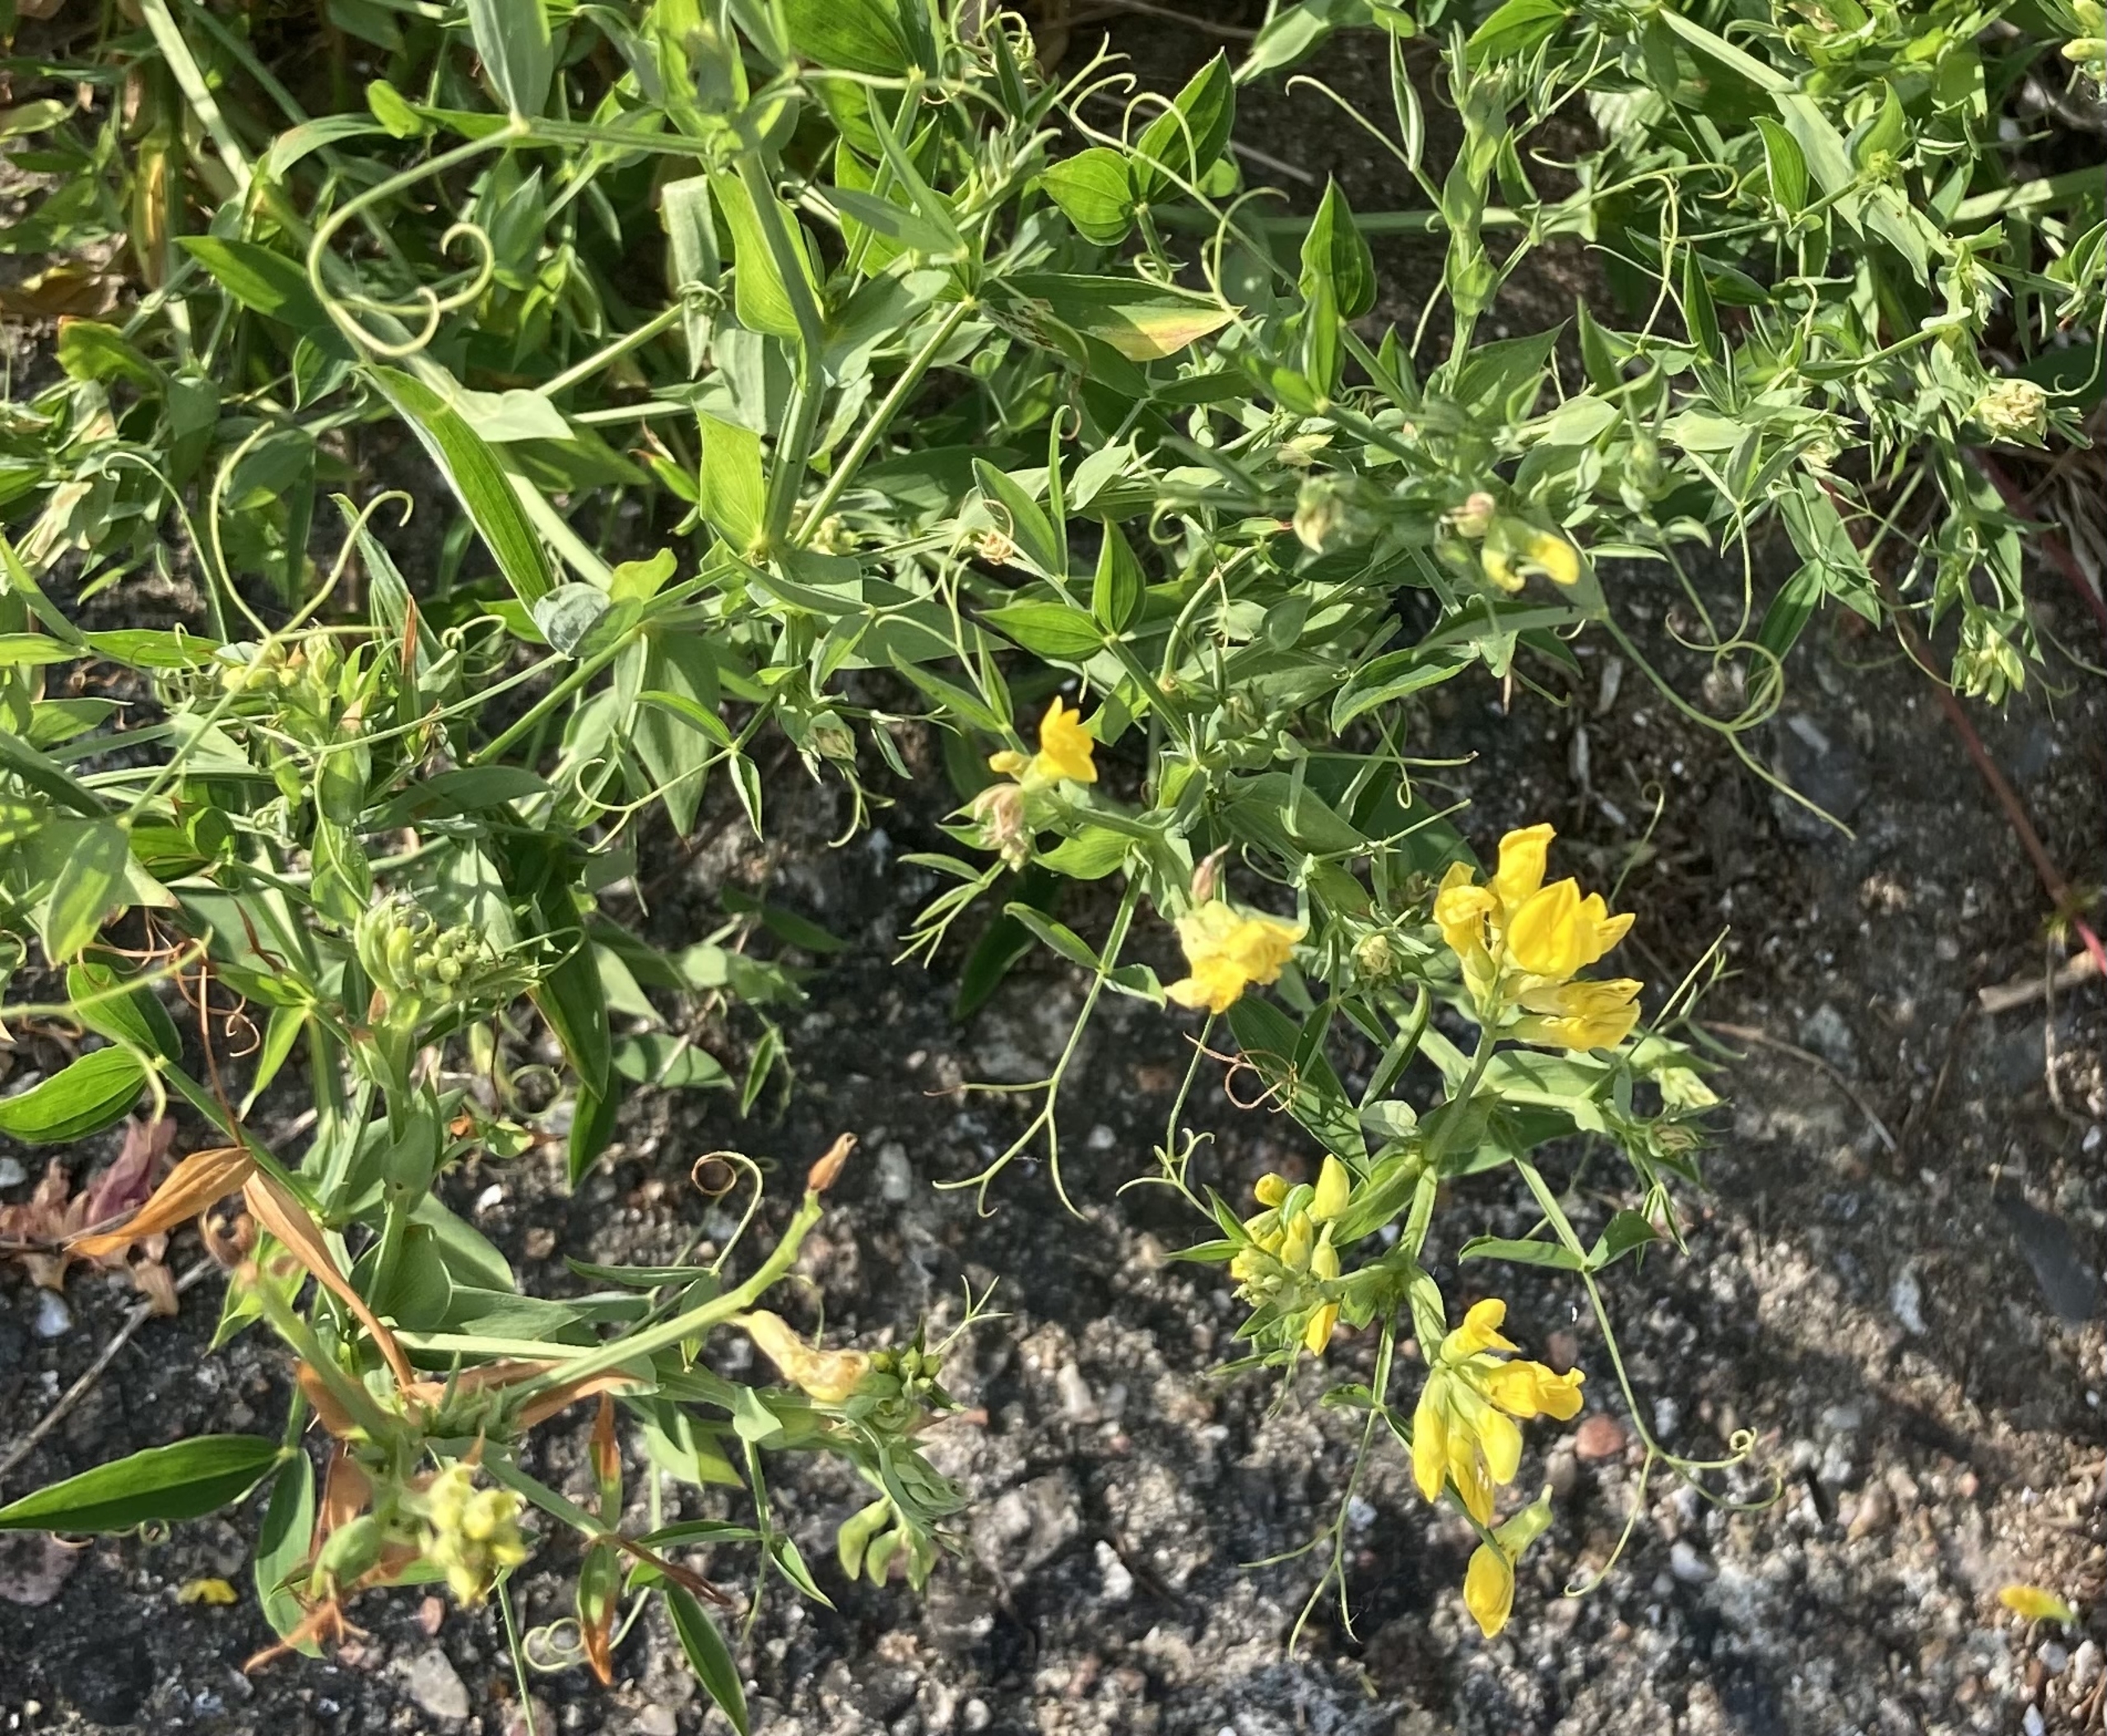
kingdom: Plantae
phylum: Tracheophyta
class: Magnoliopsida
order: Fabales
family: Fabaceae
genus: Lathyrus
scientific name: Lathyrus pratensis
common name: Gul fladbælg
